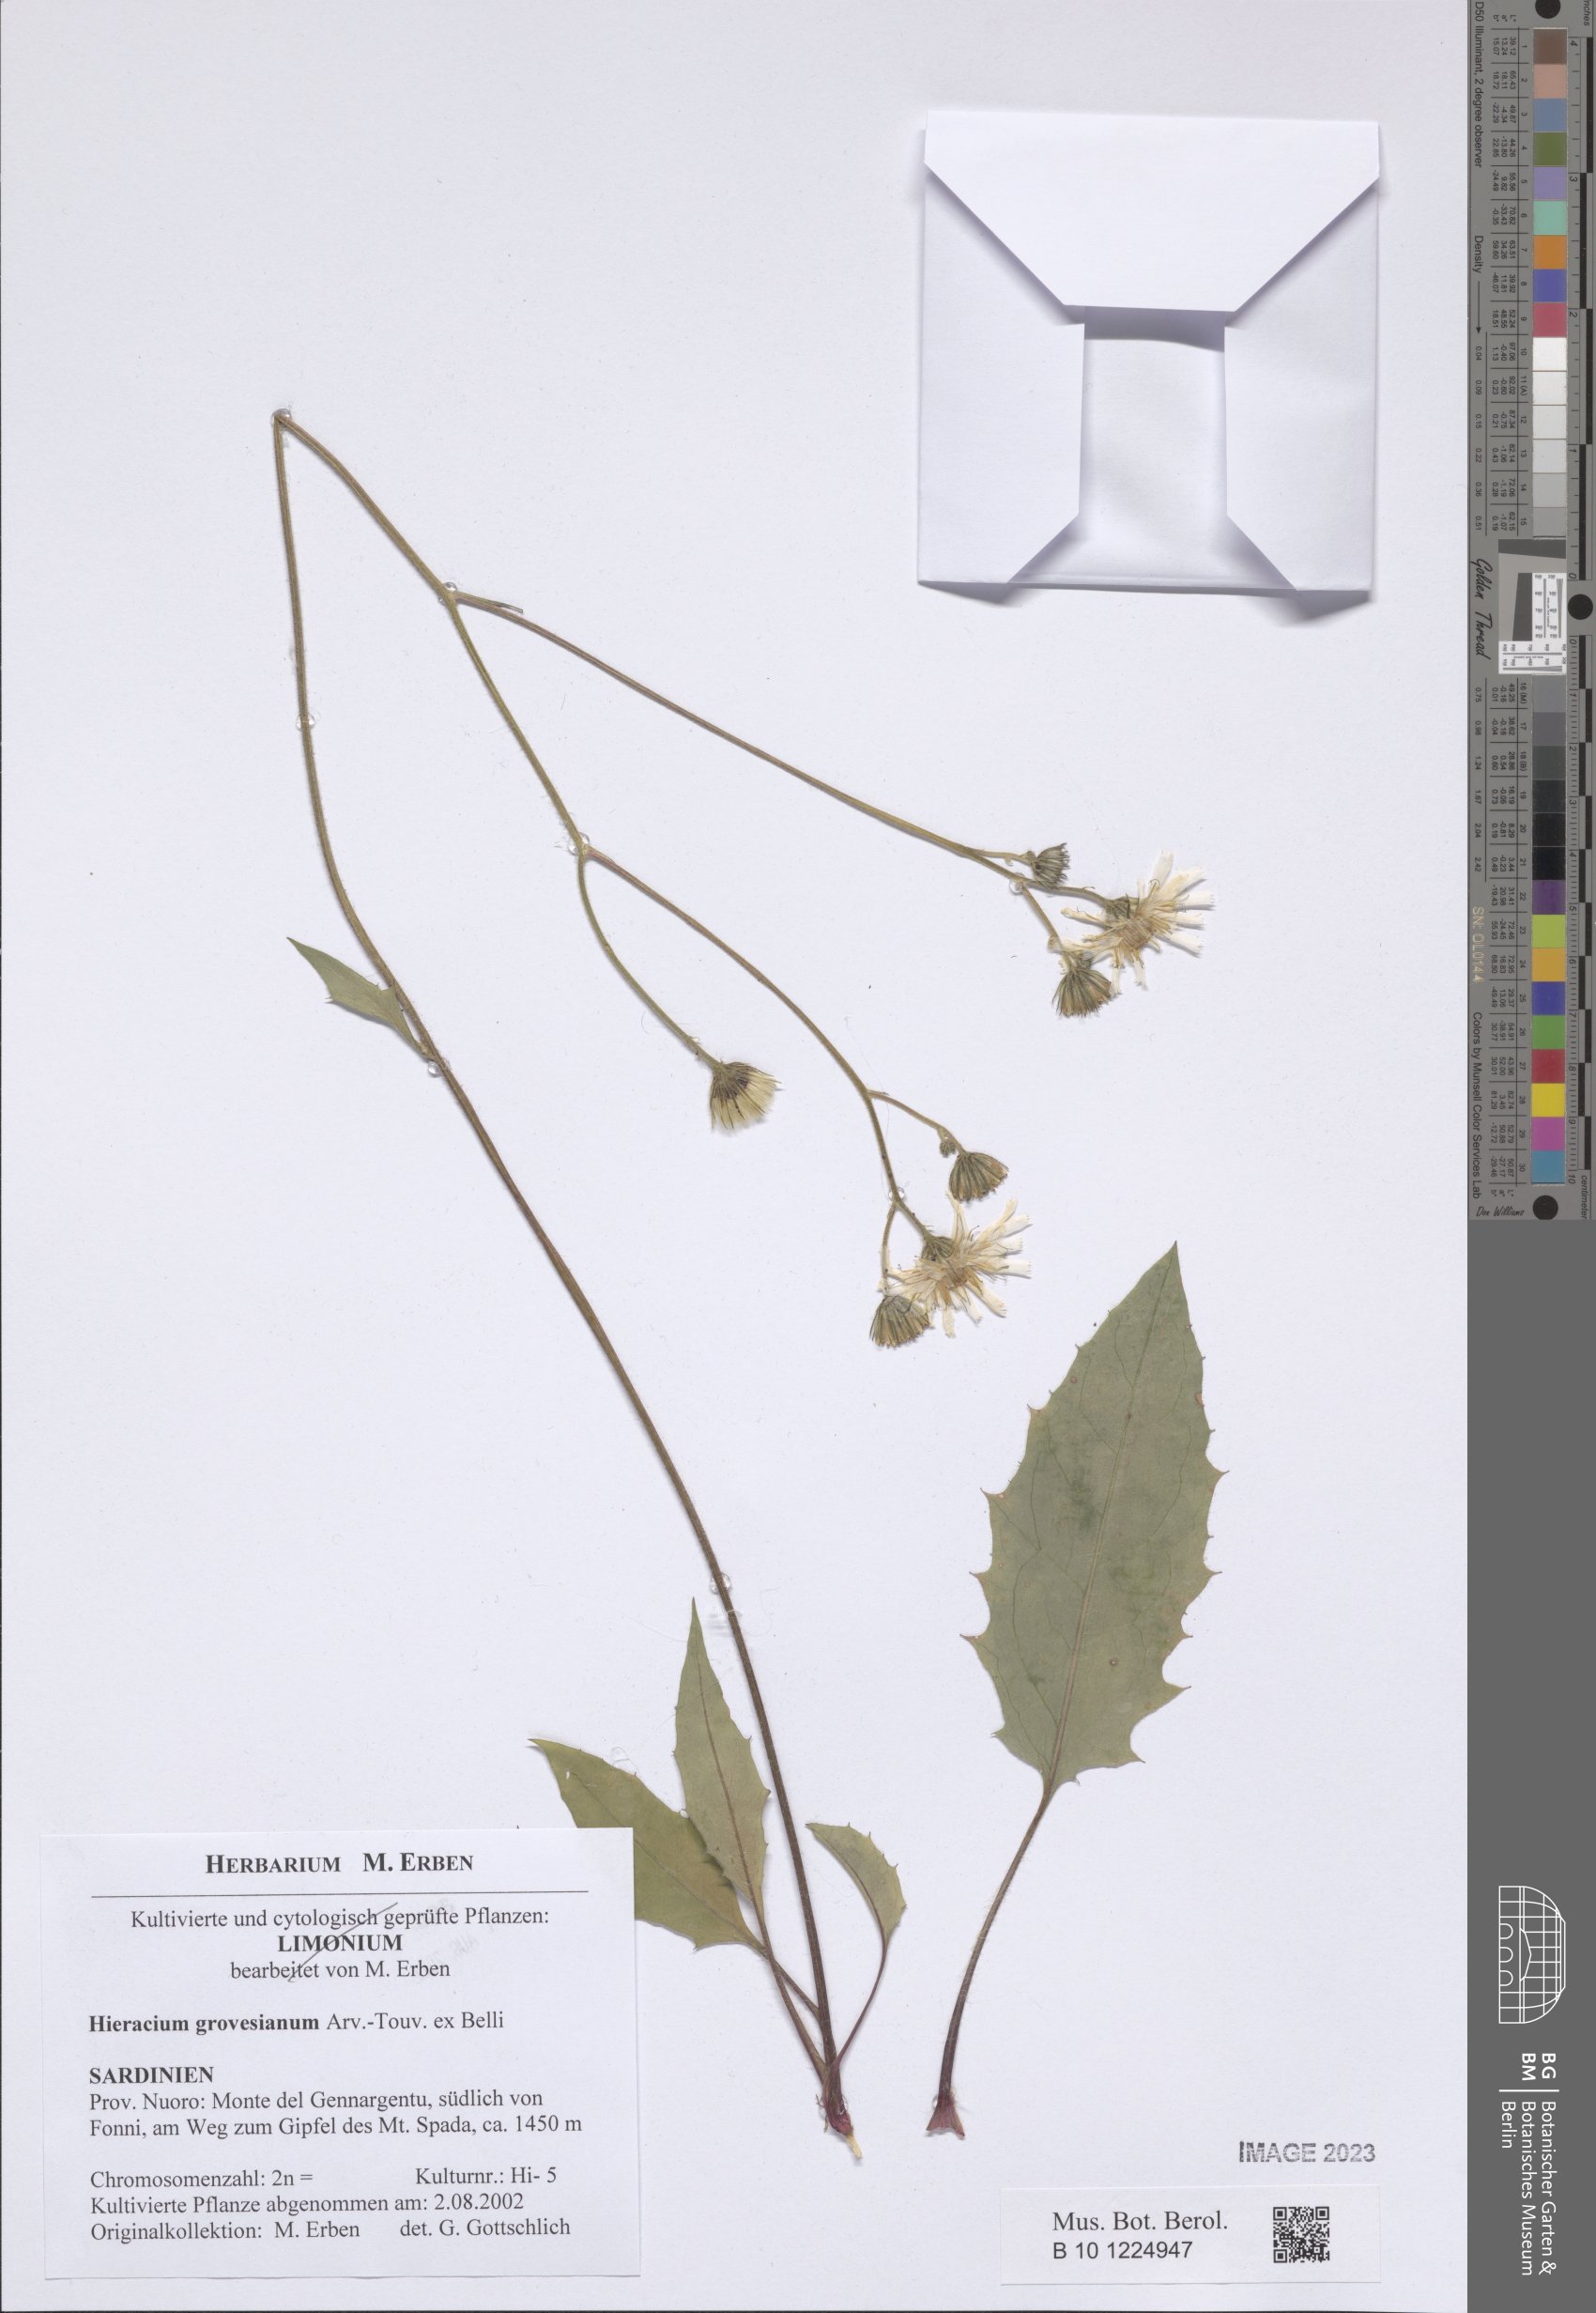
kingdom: Plantae
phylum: Tracheophyta
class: Magnoliopsida
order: Asterales
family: Asteraceae
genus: Hieracium
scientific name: Hieracium grovesianum
